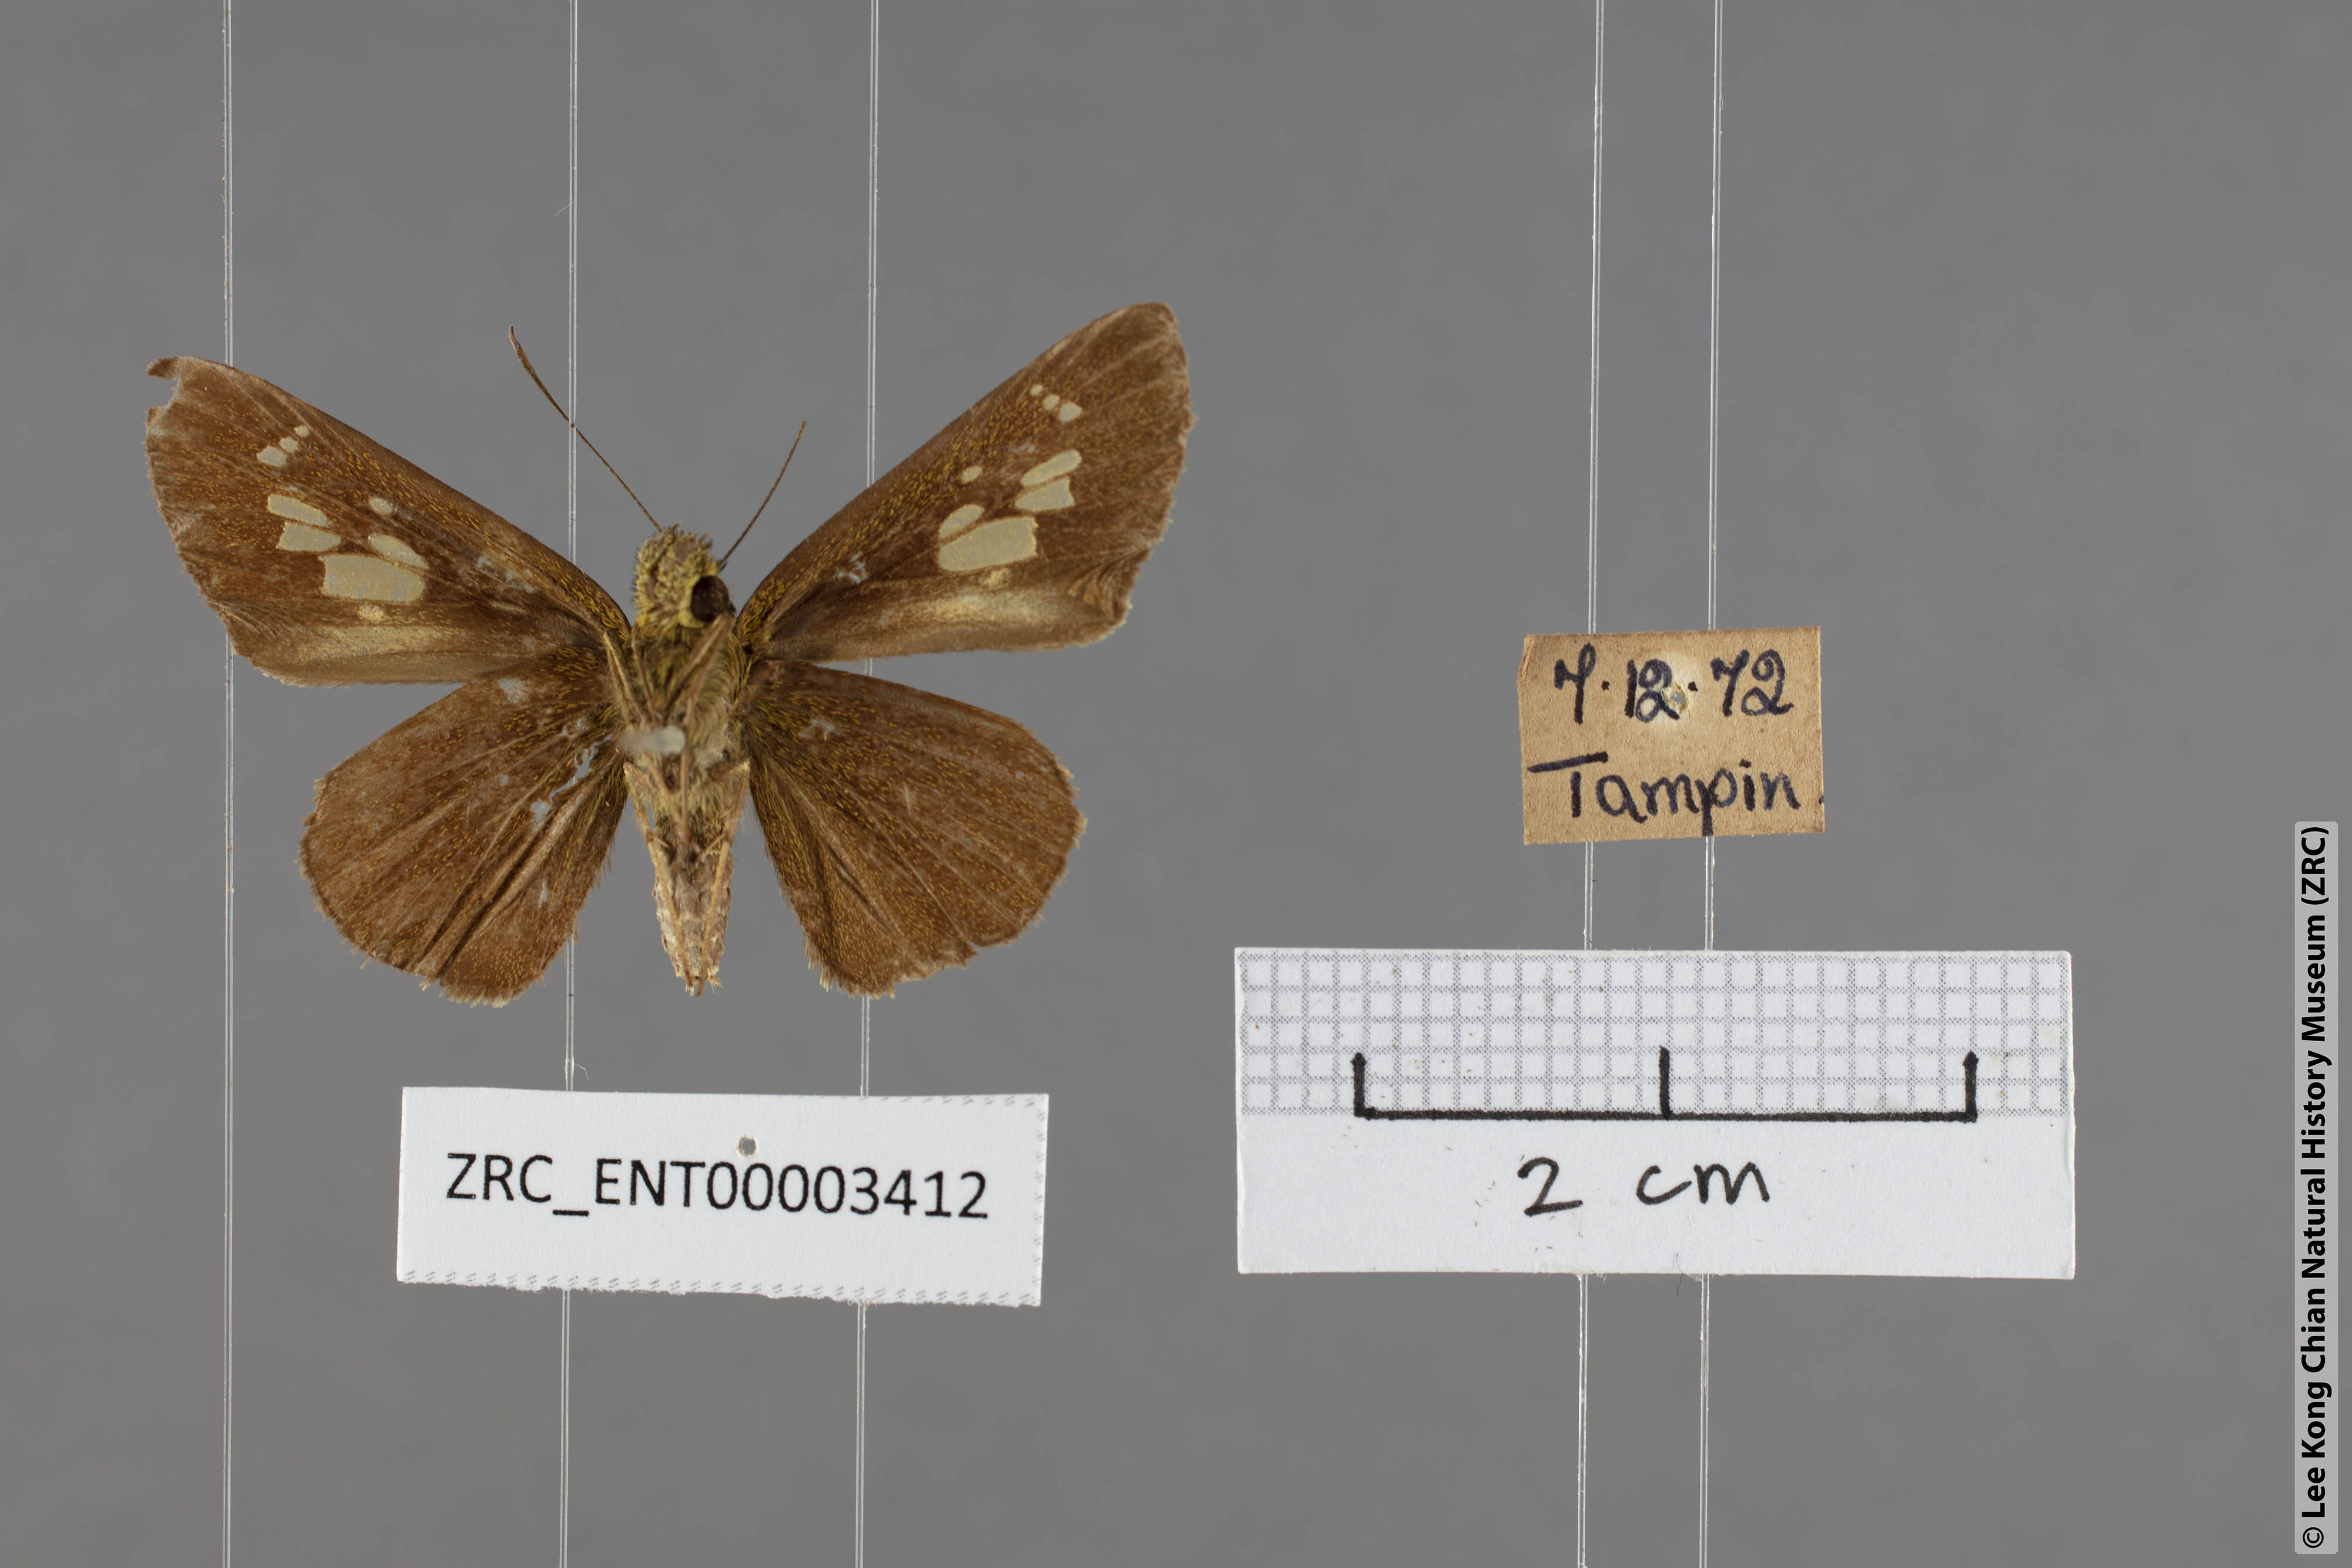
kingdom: Animalia
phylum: Arthropoda
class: Insecta
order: Lepidoptera
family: Hesperiidae
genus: Pemara
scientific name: Pemara pugnans
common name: Pugnacious lancer
